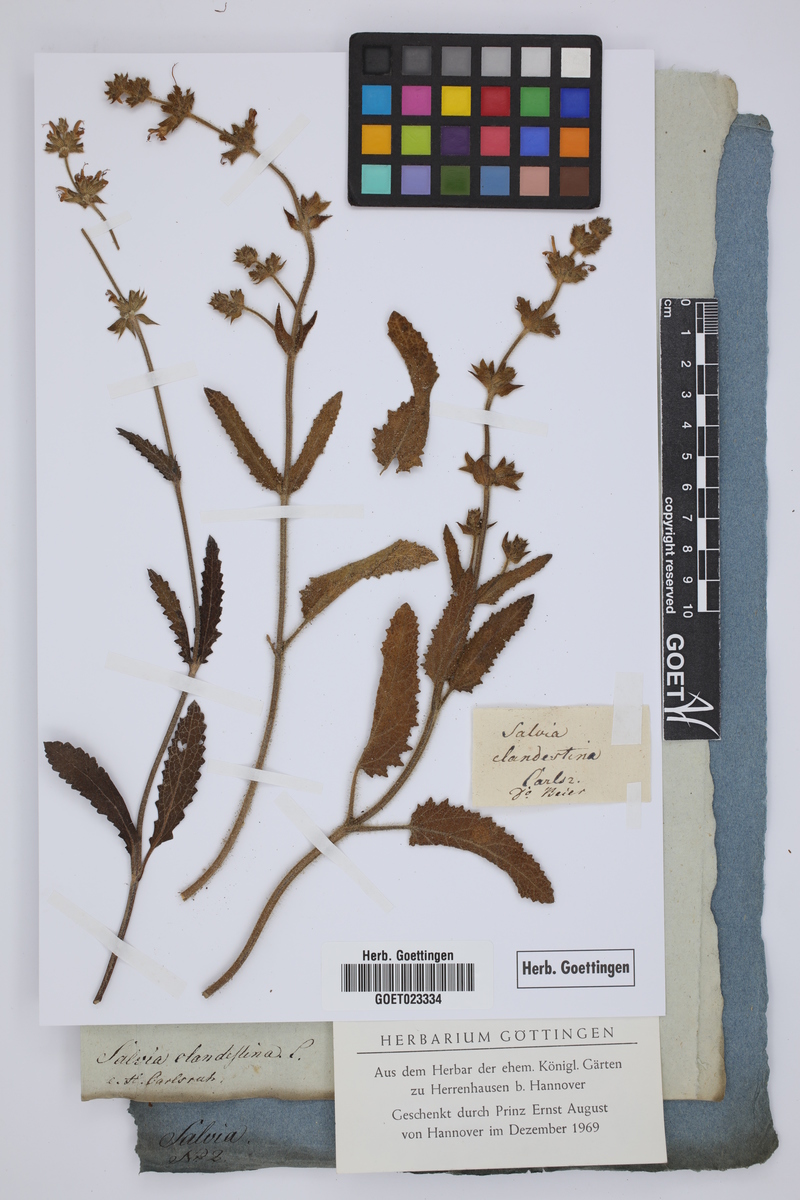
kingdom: Plantae
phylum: Tracheophyta
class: Magnoliopsida
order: Lamiales
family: Lamiaceae
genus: Salvia
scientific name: Salvia verbenaca
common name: Wild clary
